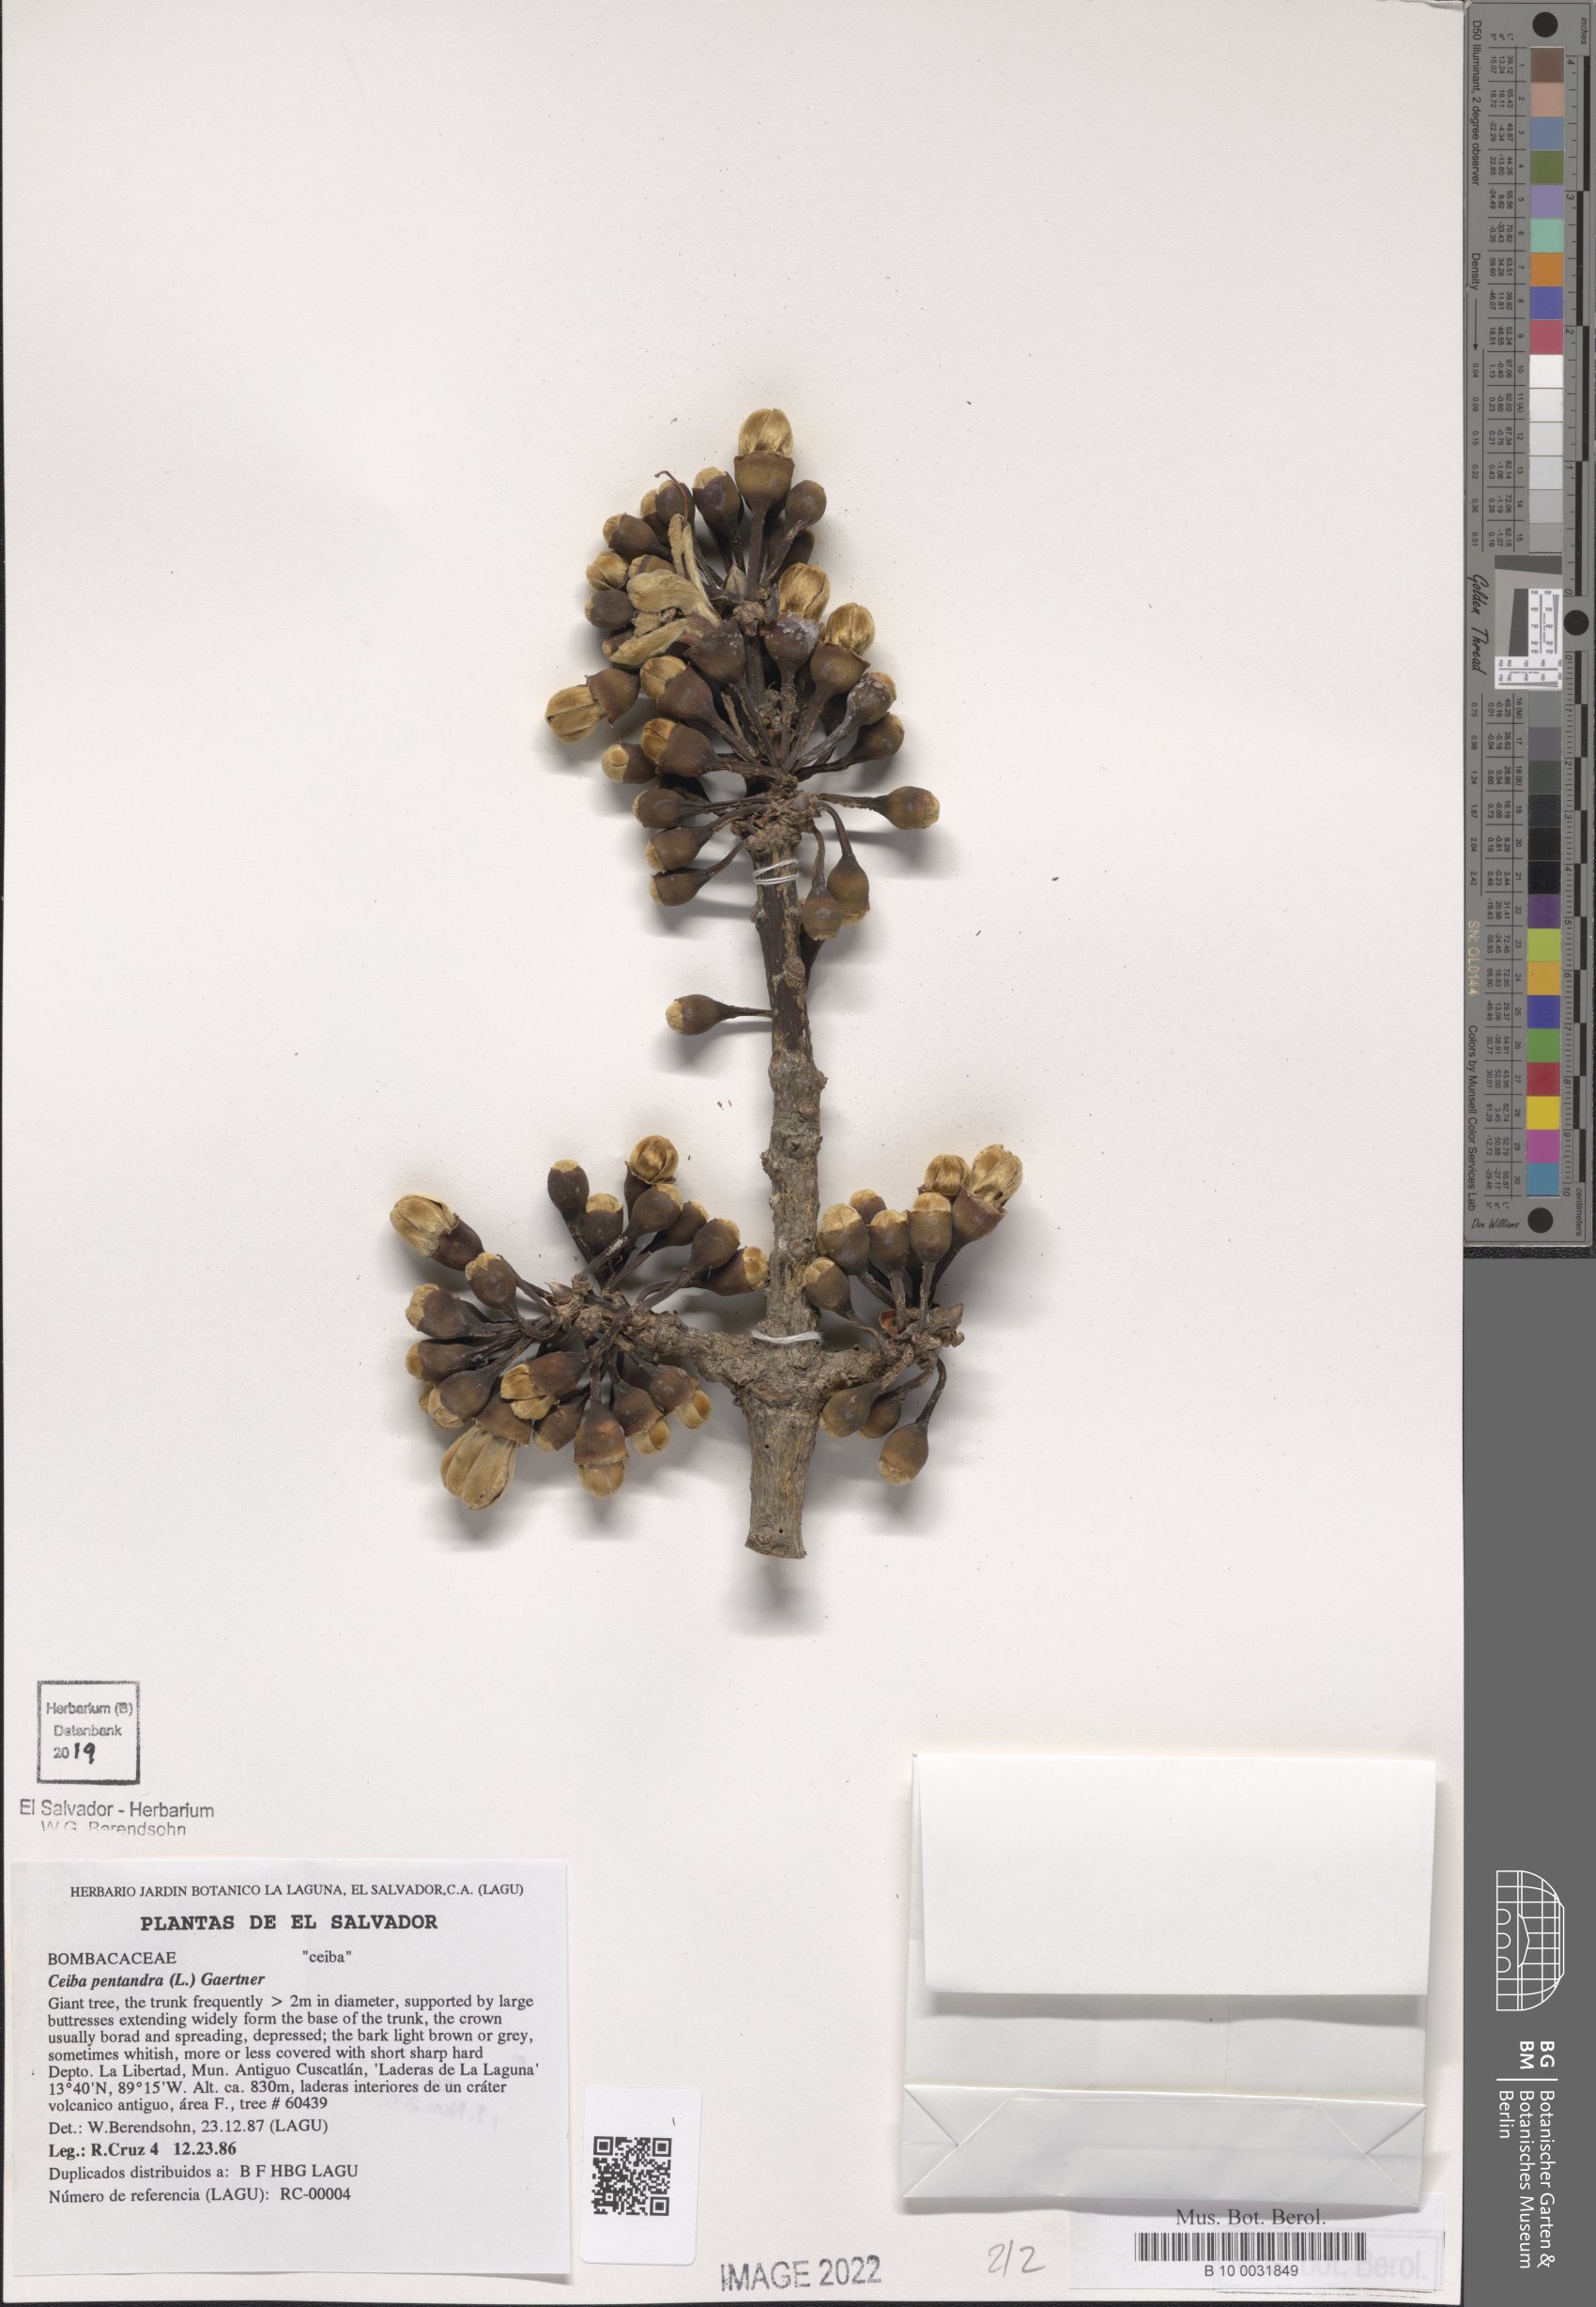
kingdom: Plantae
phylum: Tracheophyta
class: Magnoliopsida
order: Malvales
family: Malvaceae
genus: Ceiba
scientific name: Ceiba pentandra
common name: Kapok
